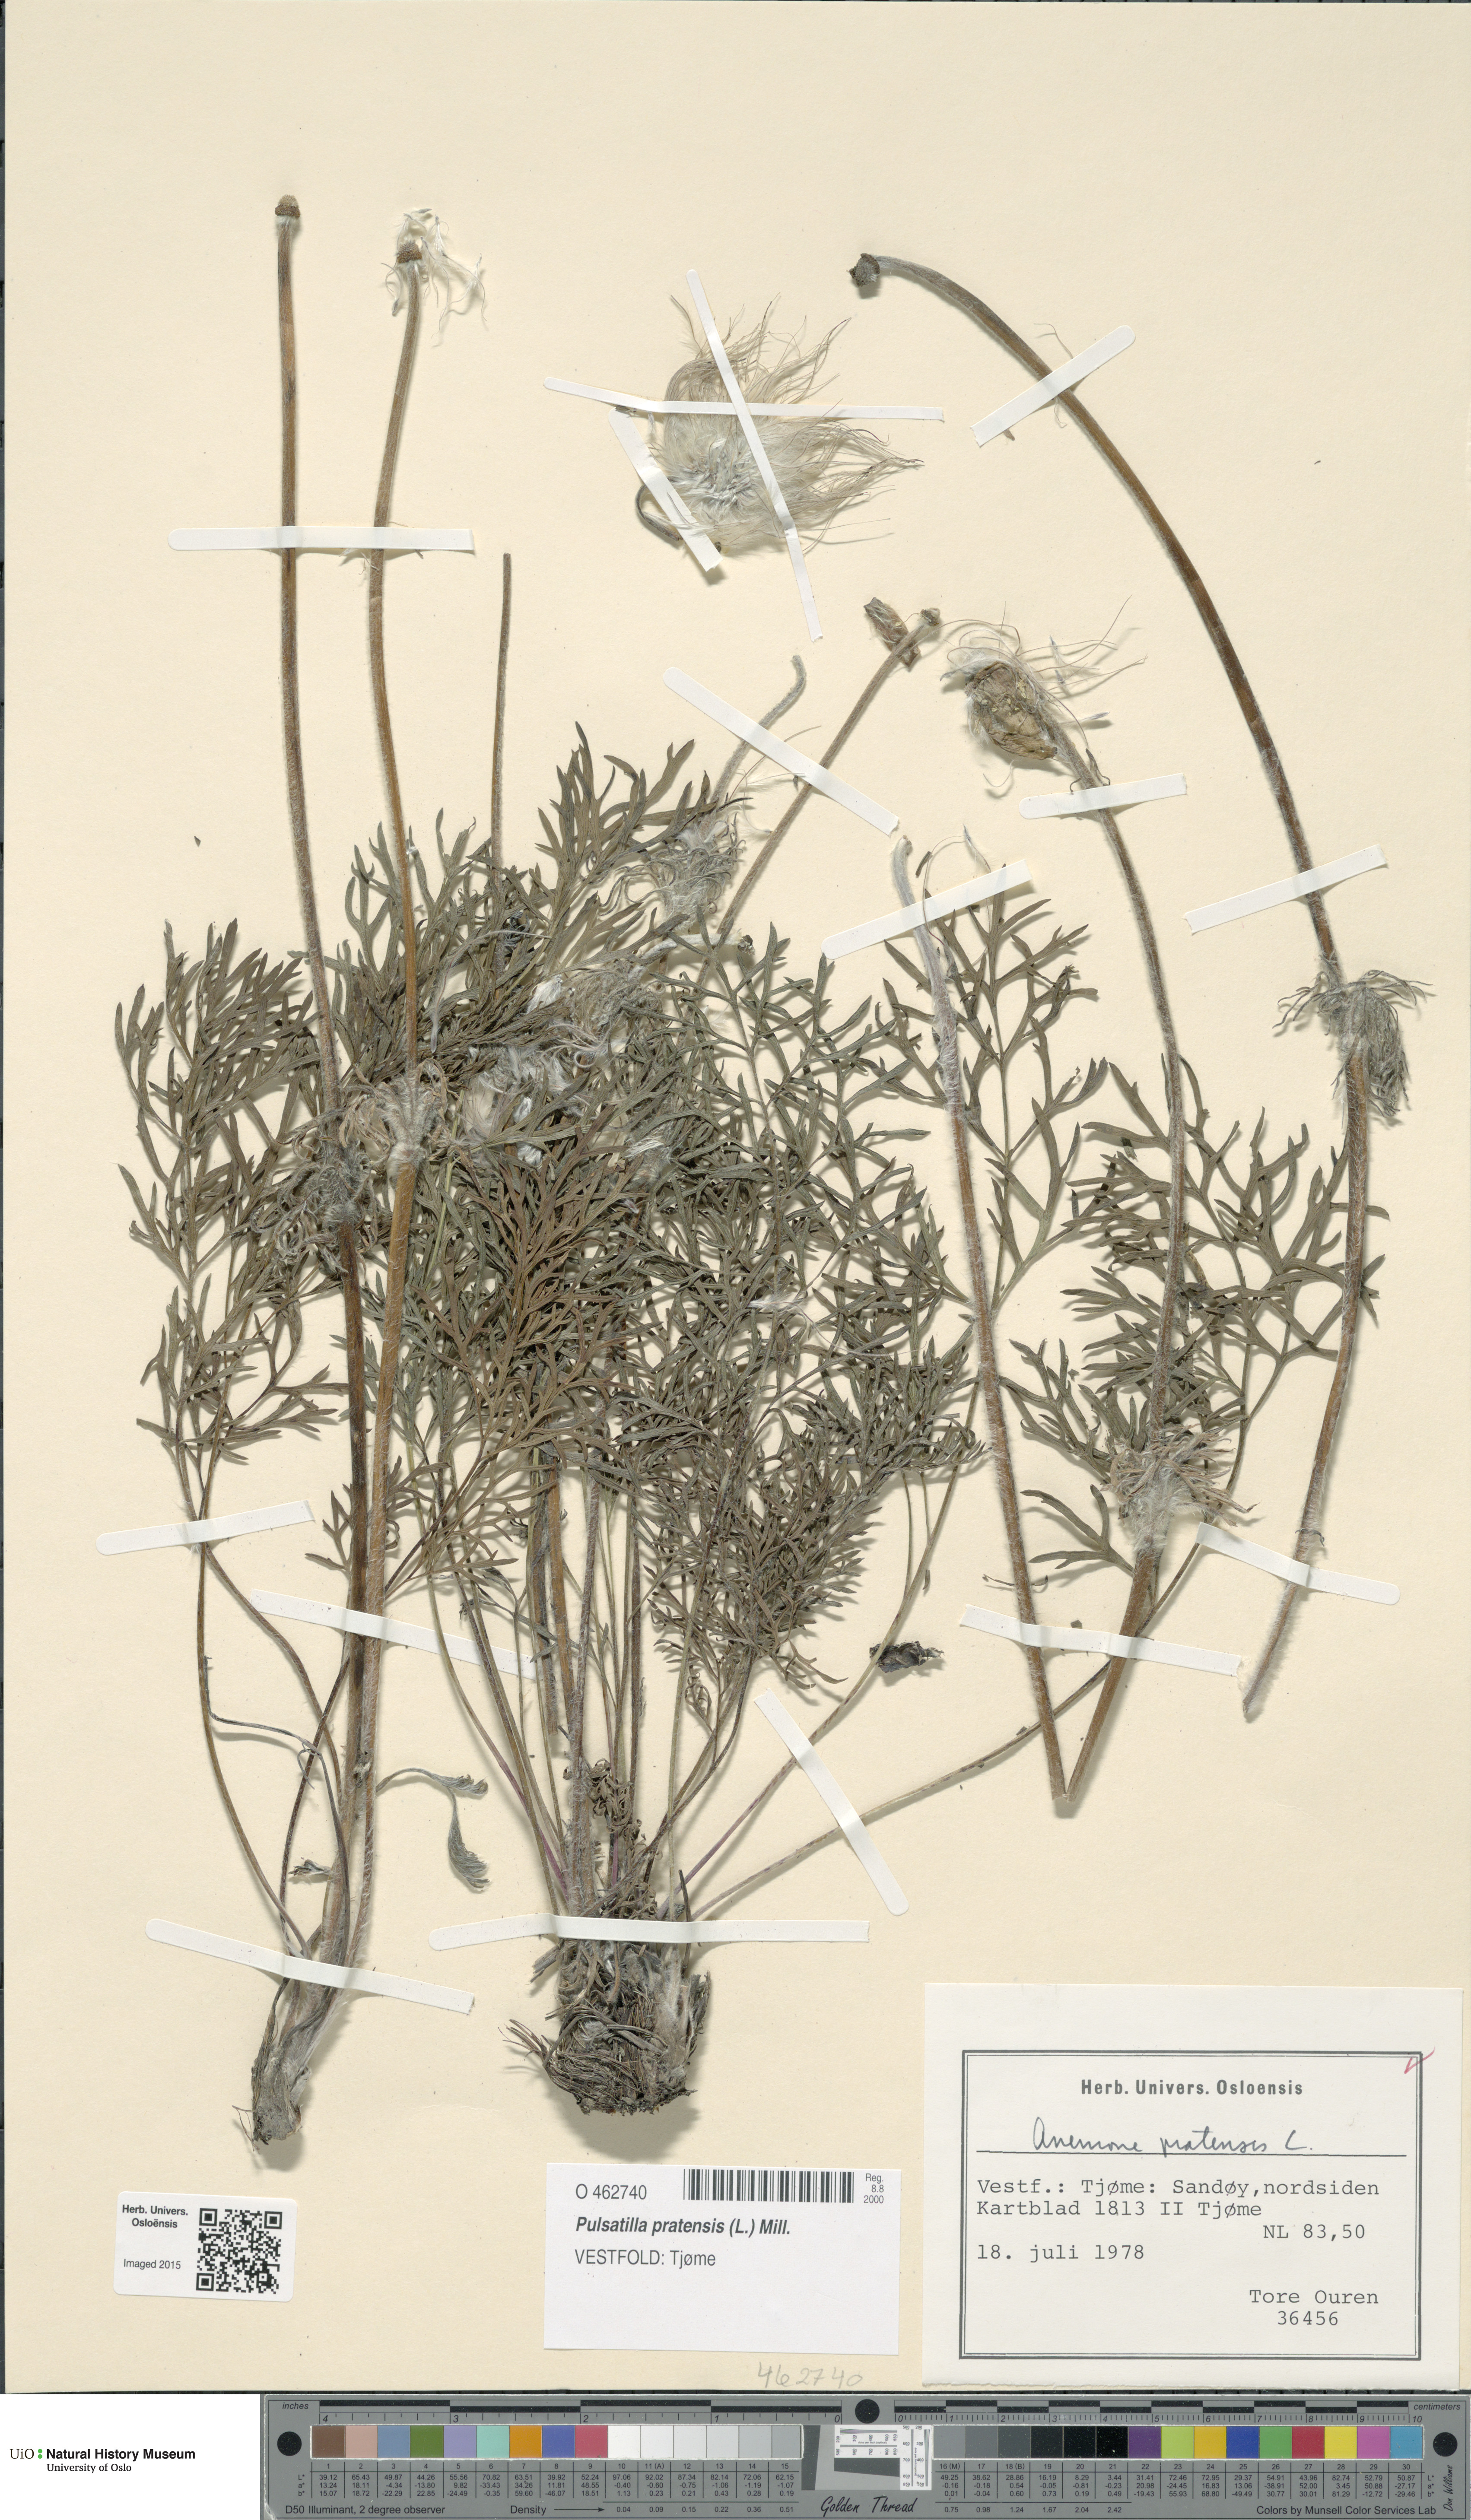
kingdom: Plantae
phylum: Tracheophyta
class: Magnoliopsida
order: Ranunculales
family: Ranunculaceae
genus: Pulsatilla
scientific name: Pulsatilla pratensis
